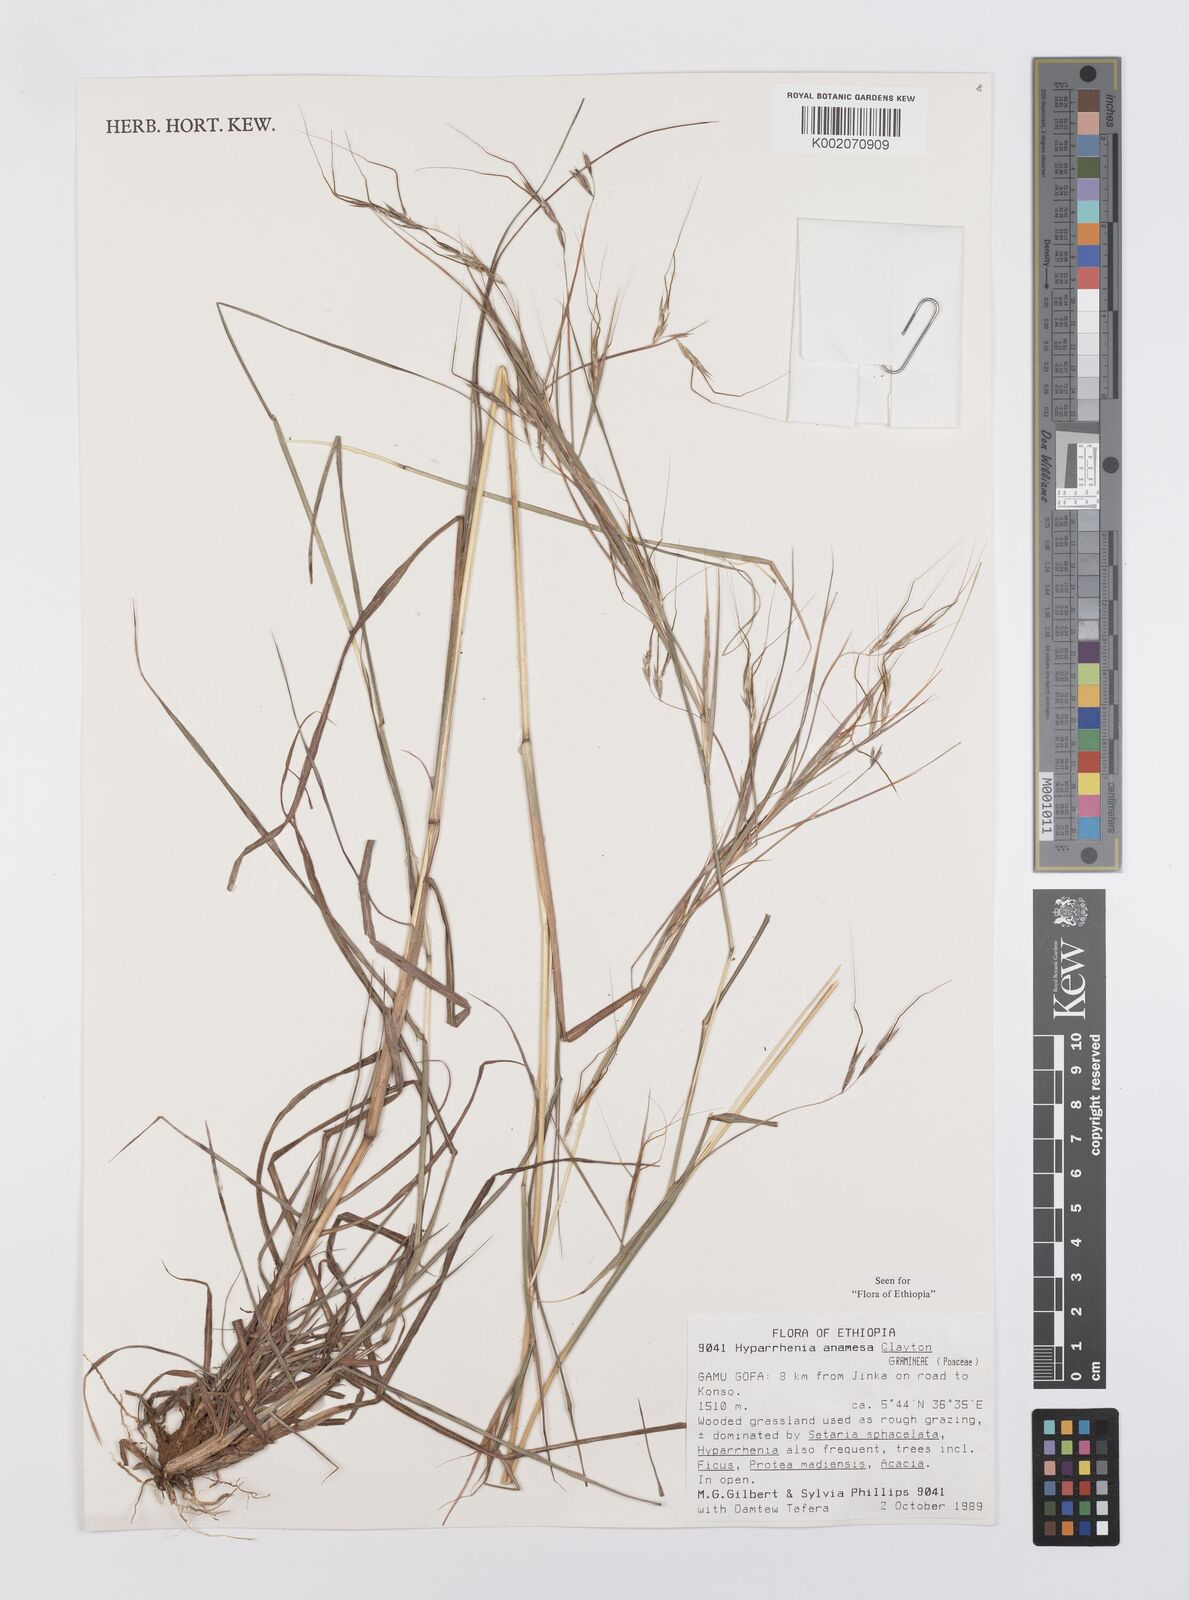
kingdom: Plantae
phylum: Tracheophyta
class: Liliopsida
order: Poales
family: Poaceae
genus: Hyparrhenia
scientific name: Hyparrhenia anamesa
